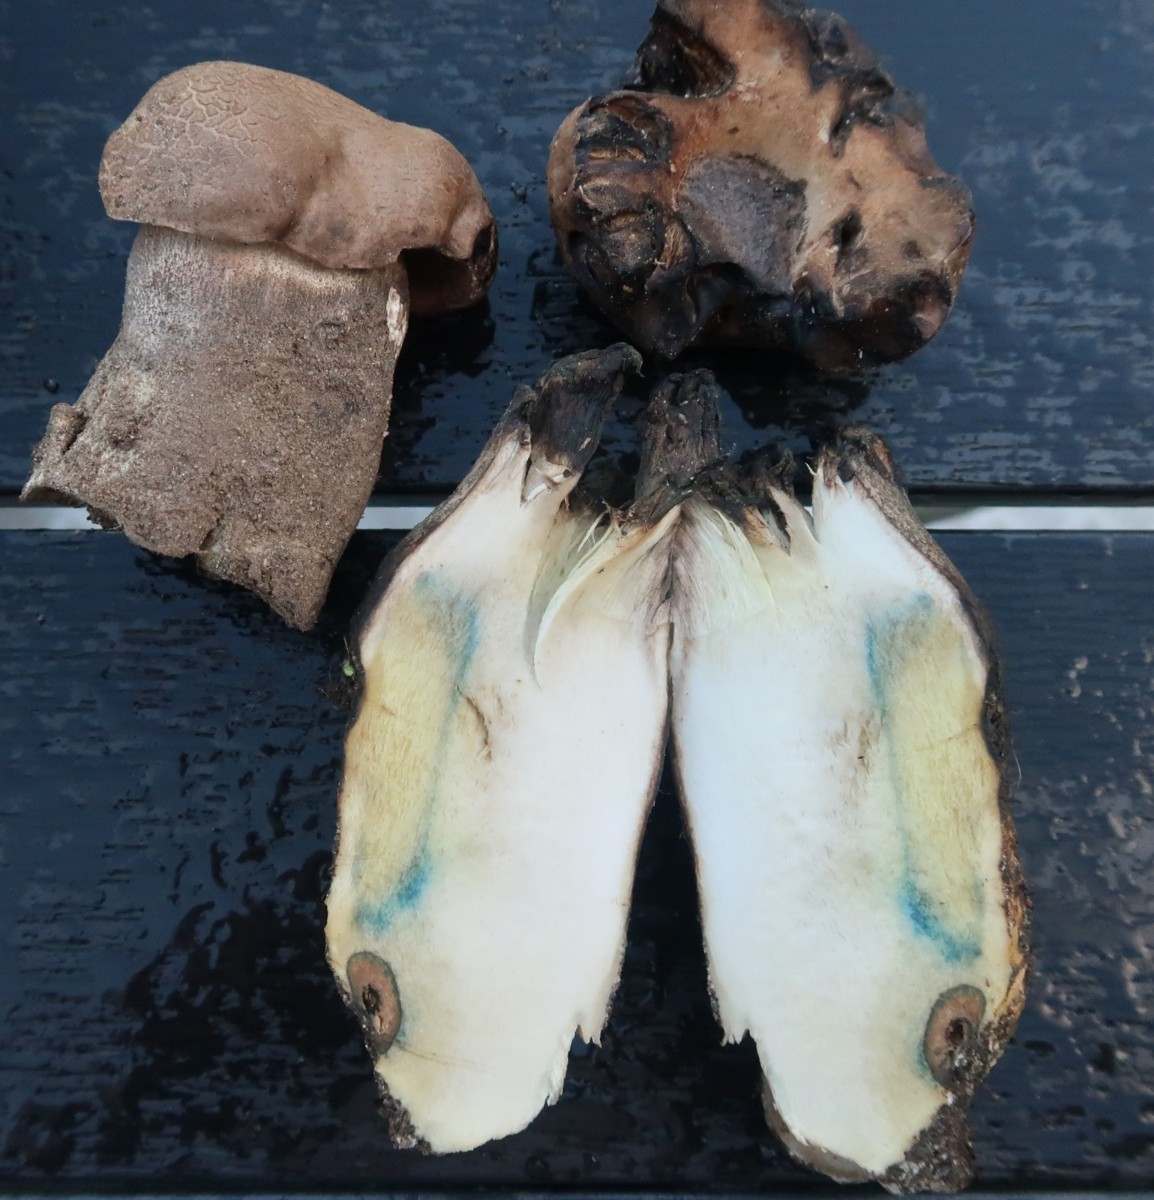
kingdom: Fungi
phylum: Basidiomycota
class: Agaricomycetes
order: Boletales
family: Boletaceae
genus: Leccinum
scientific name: Leccinum duriusculum
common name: poppel-skælrørhat
